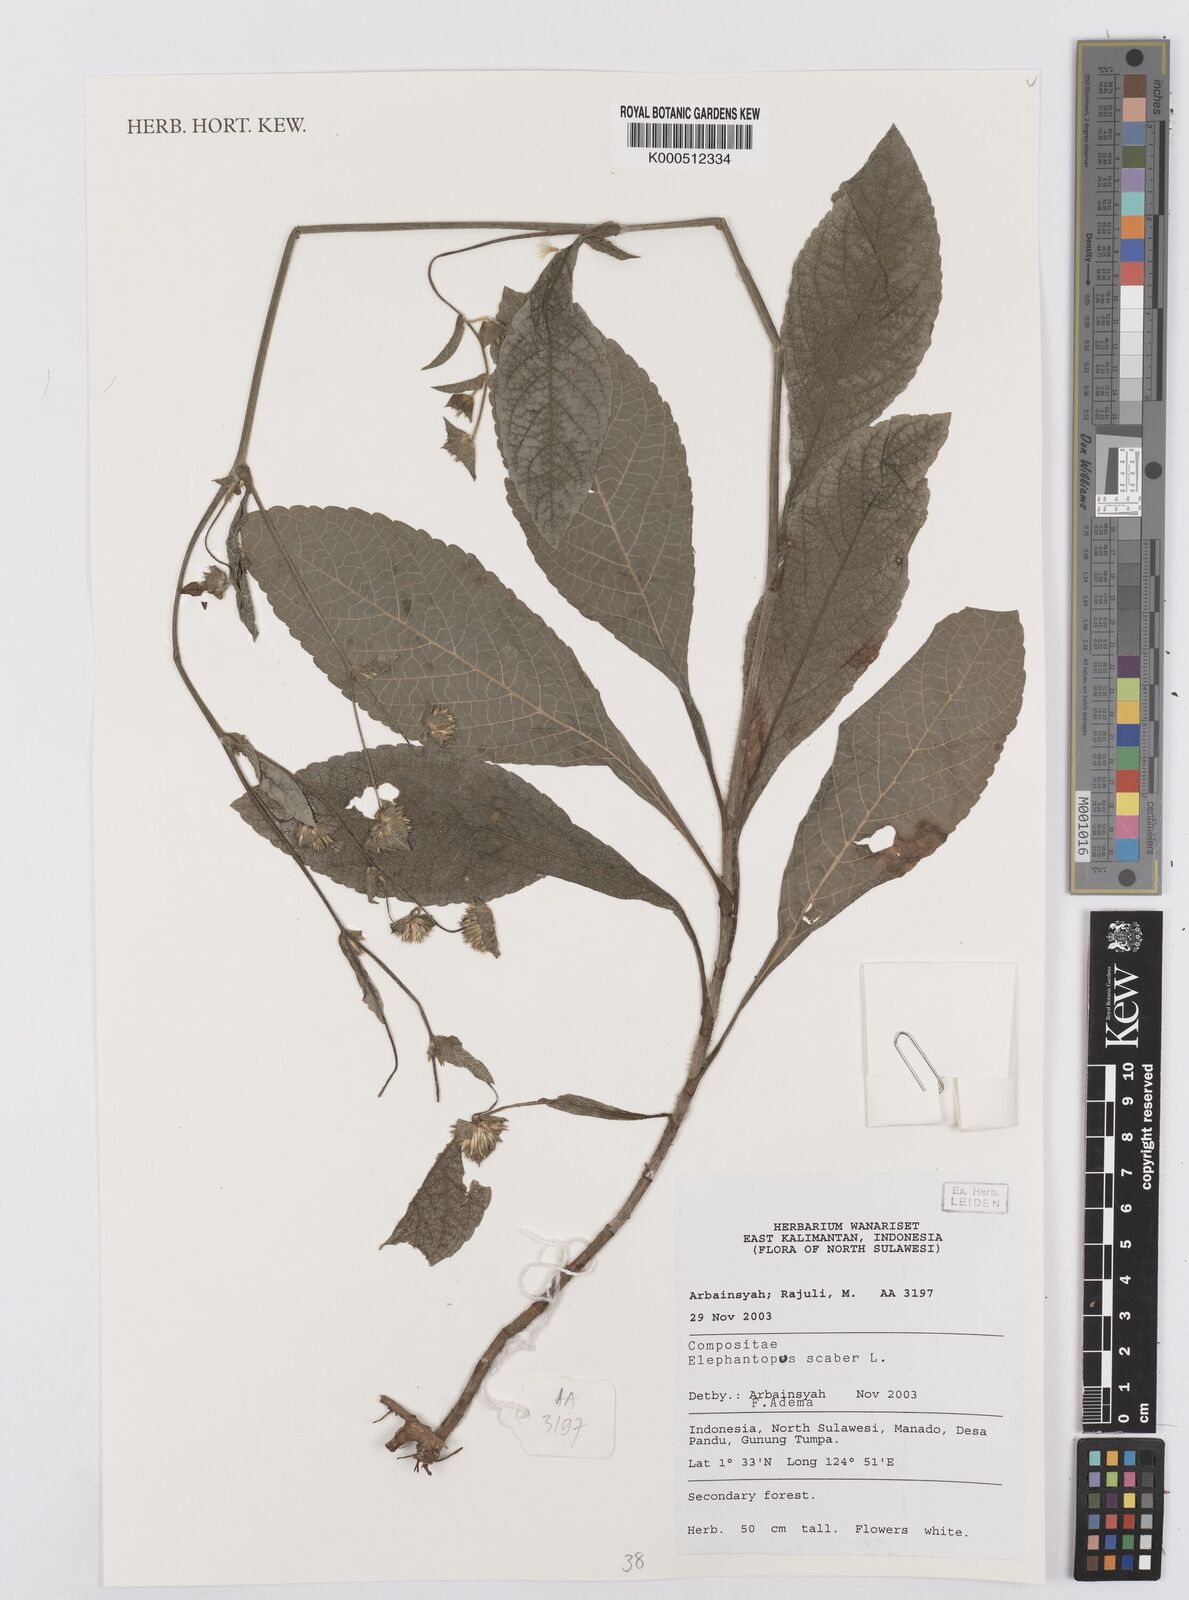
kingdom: Plantae
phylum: Tracheophyta
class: Magnoliopsida
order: Asterales
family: Asteraceae
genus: Elephantopus
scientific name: Elephantopus scaber
